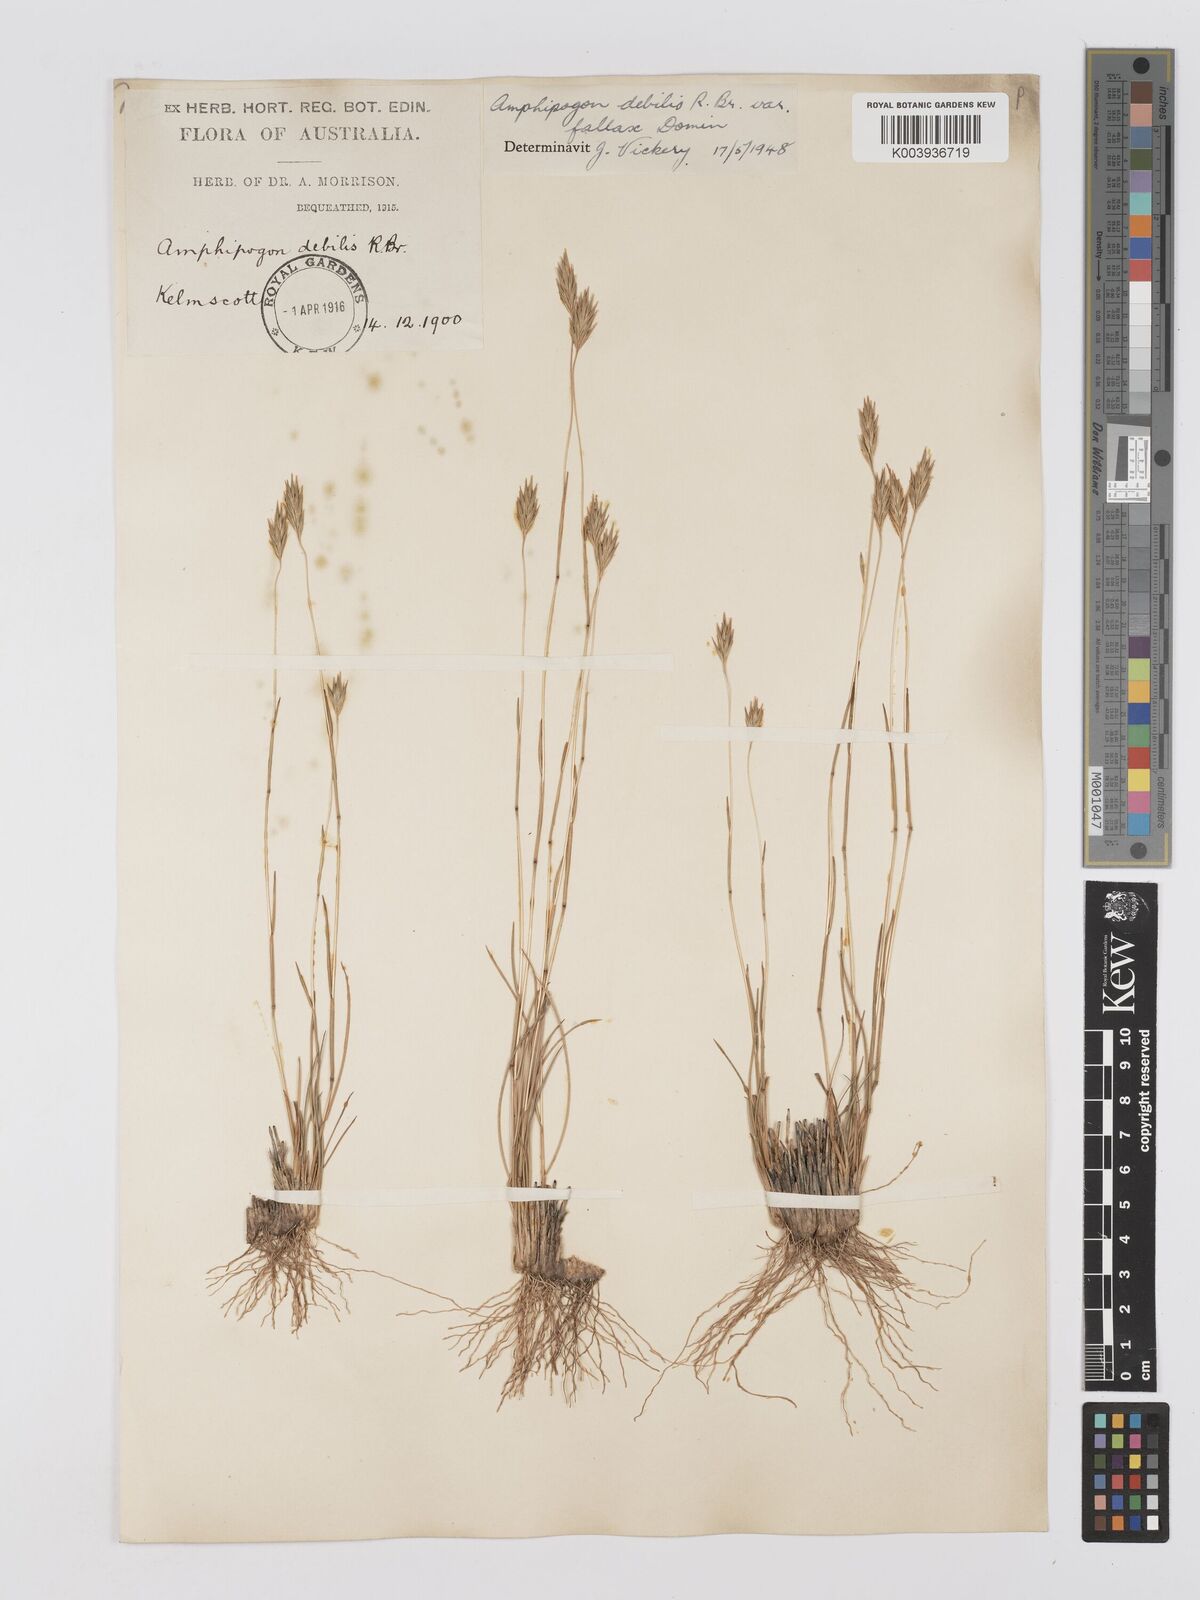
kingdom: Plantae
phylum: Tracheophyta
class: Liliopsida
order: Poales
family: Poaceae
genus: Amphipogon
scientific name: Amphipogon debilis
